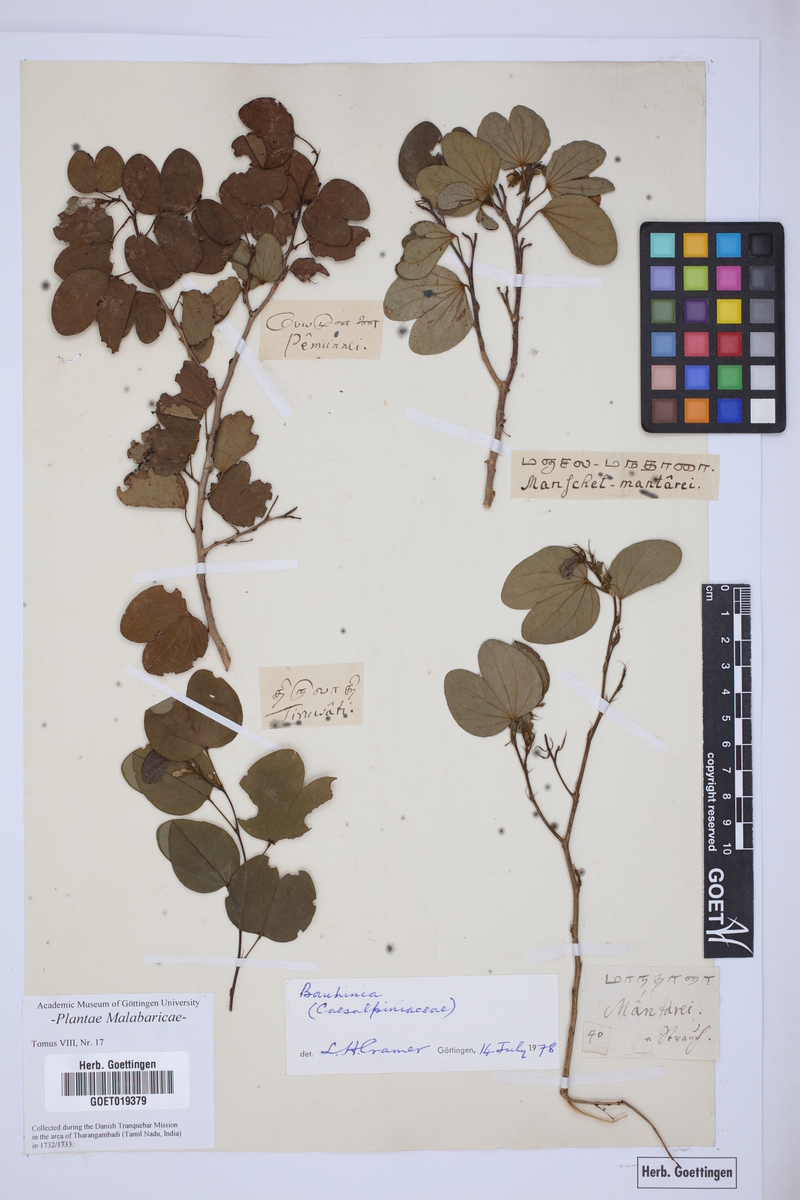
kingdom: Plantae
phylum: Tracheophyta
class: Magnoliopsida
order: Fabales
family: Fabaceae
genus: Bauhinia
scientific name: Bauhinia
